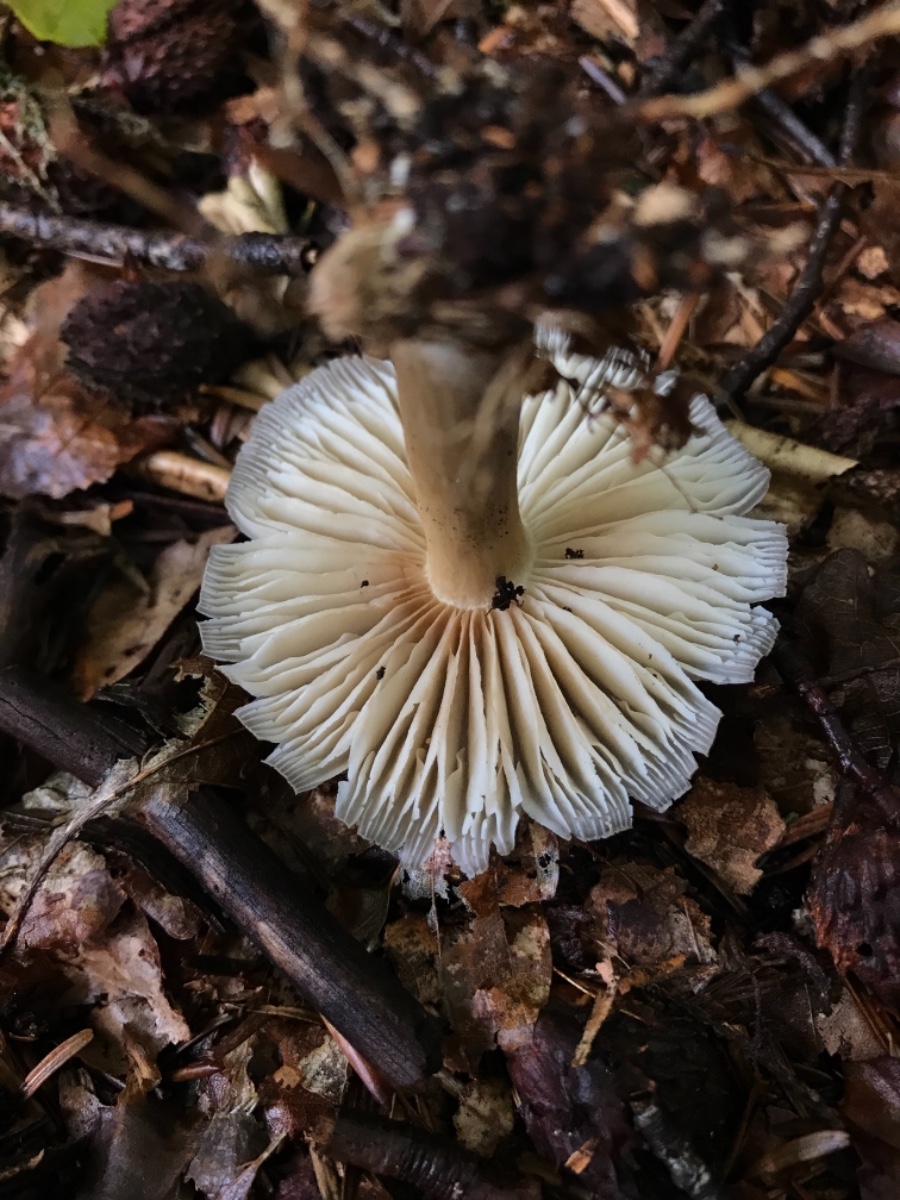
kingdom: Fungi
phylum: Basidiomycota
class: Agaricomycetes
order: Agaricales
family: Tricholomataceae
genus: Megacollybia
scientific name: Megacollybia platyphylla
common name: bredbladet væbnerhat
